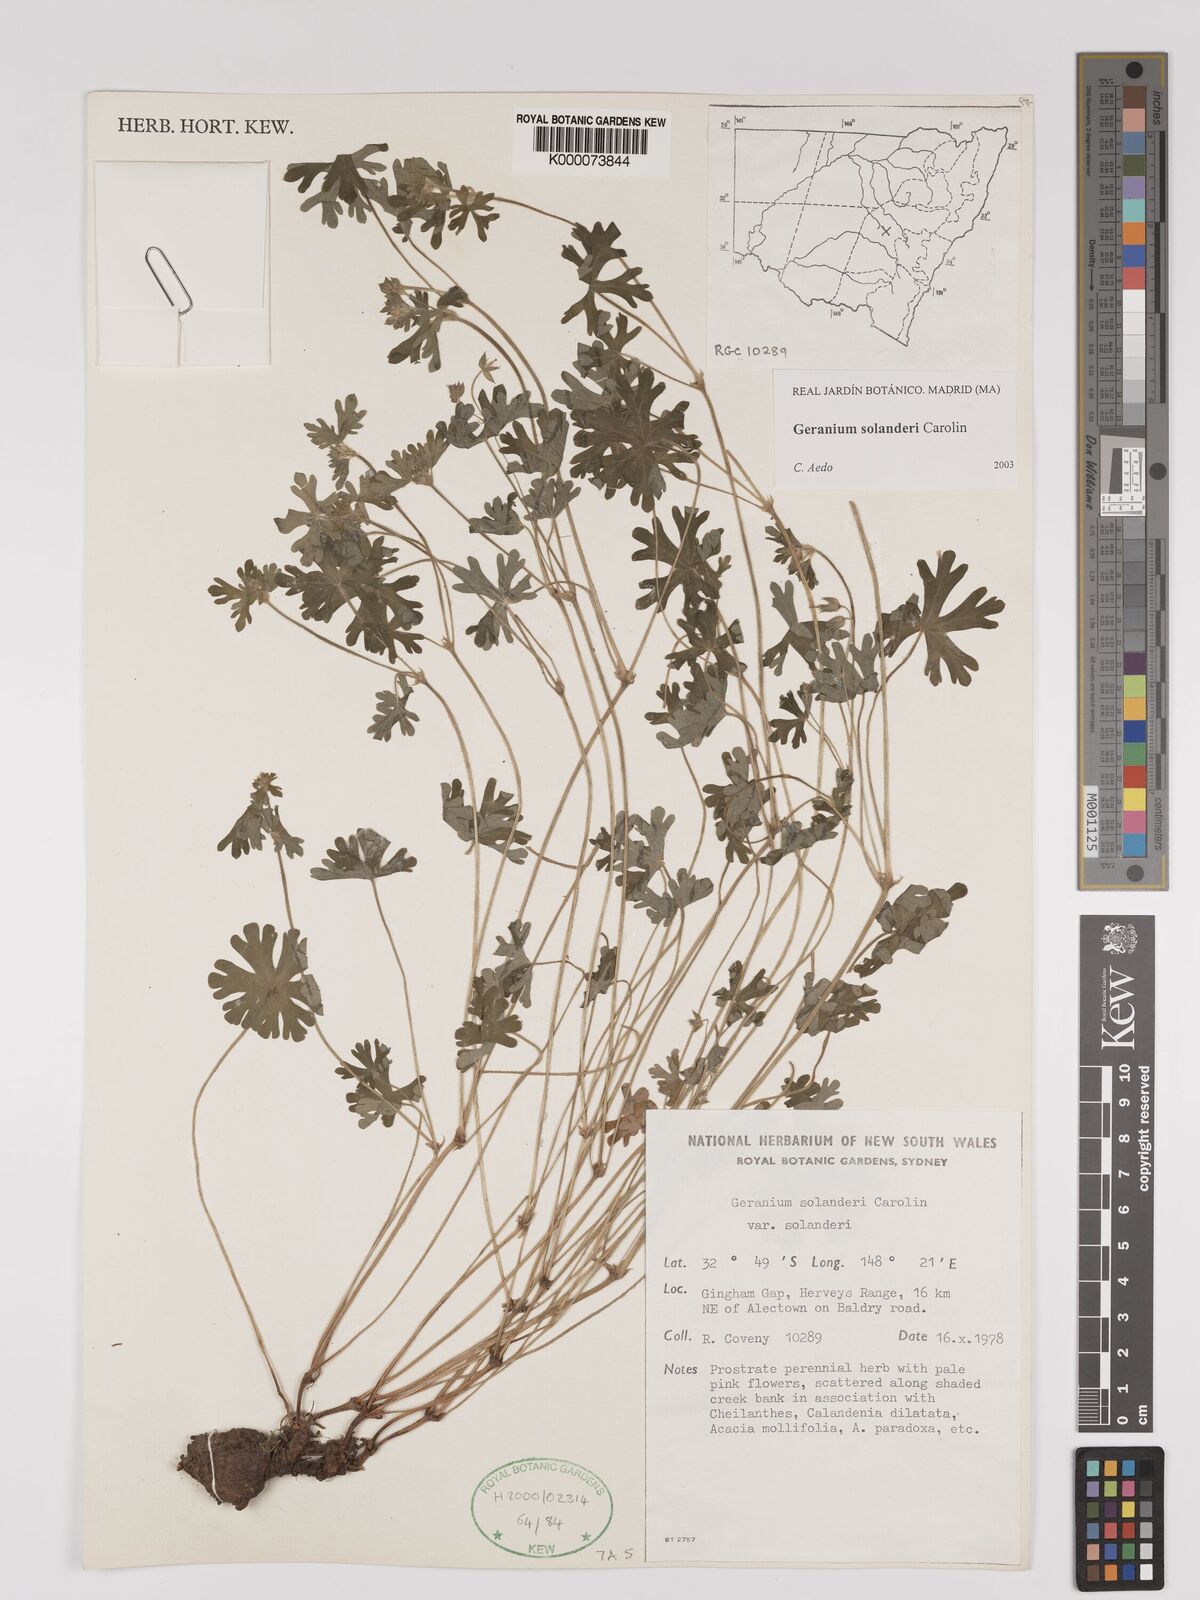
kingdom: Plantae
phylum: Tracheophyta
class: Magnoliopsida
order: Geraniales
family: Geraniaceae
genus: Geranium
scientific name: Geranium solanderi
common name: Solander's geranium
